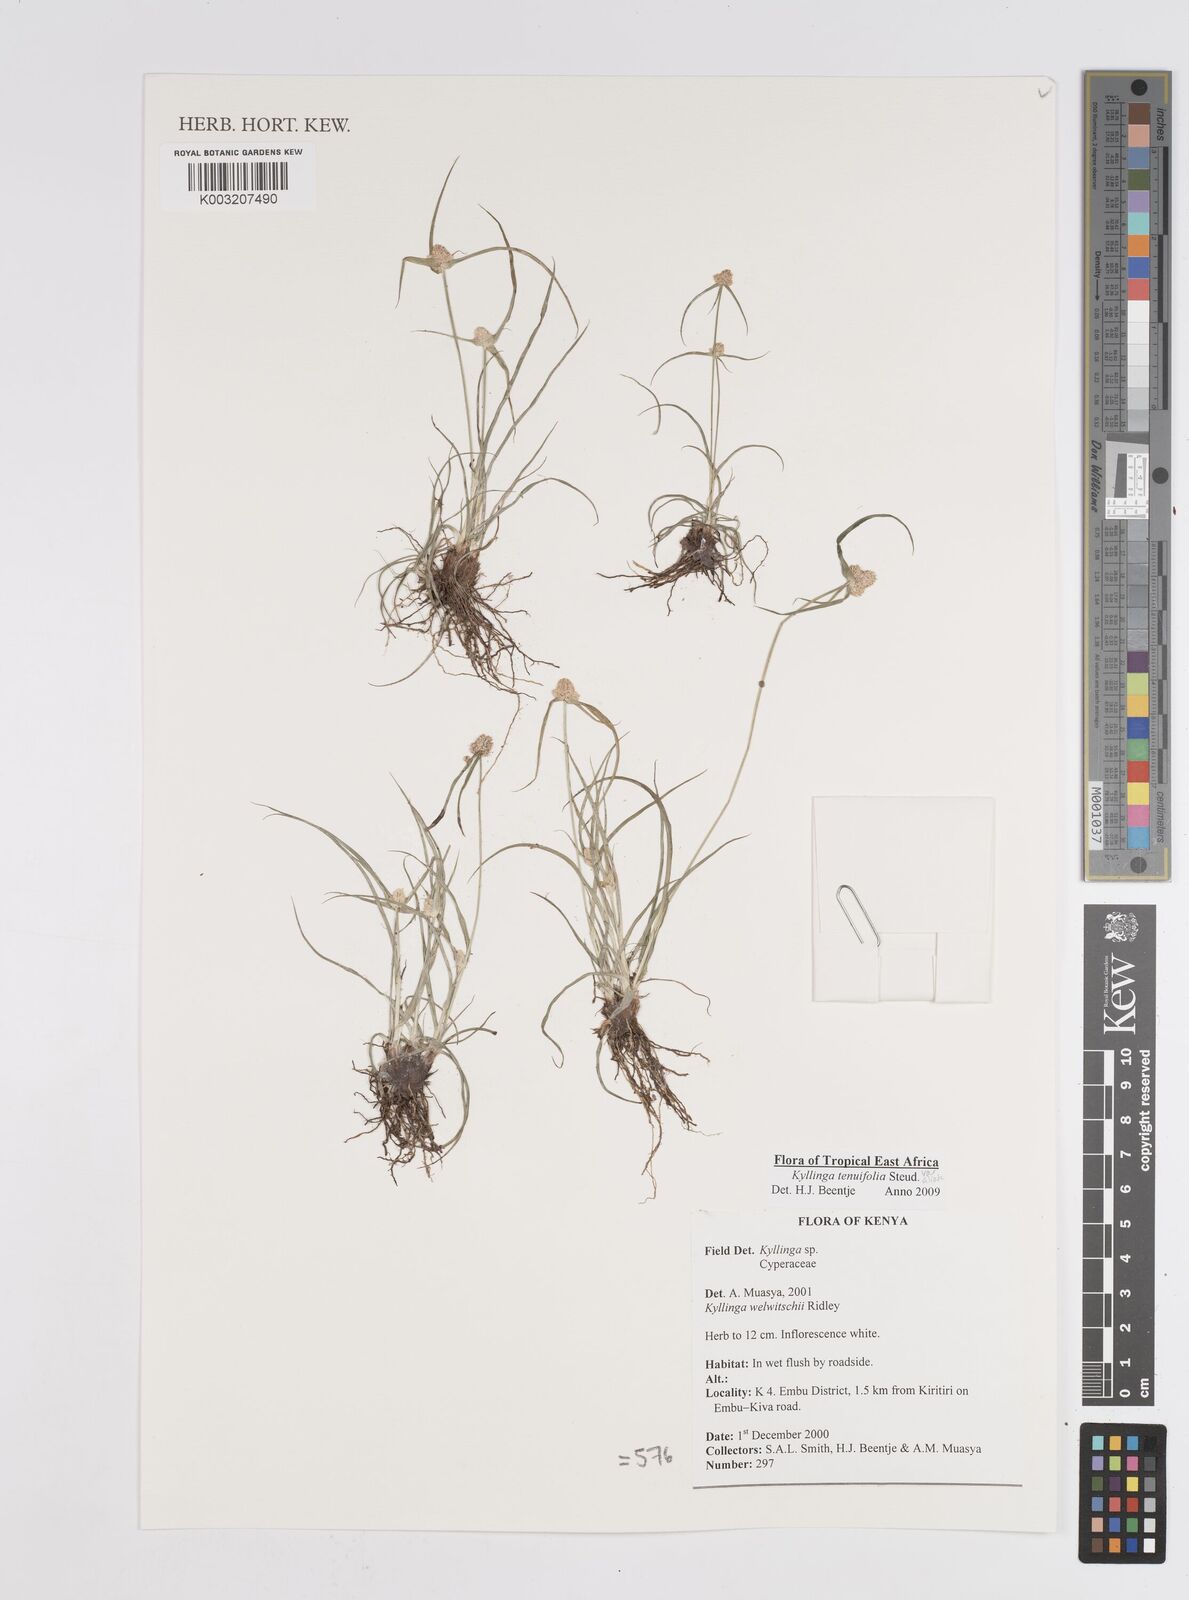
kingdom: Plantae
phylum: Tracheophyta
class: Liliopsida
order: Poales
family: Cyperaceae
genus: Cyperus
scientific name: Cyperus
